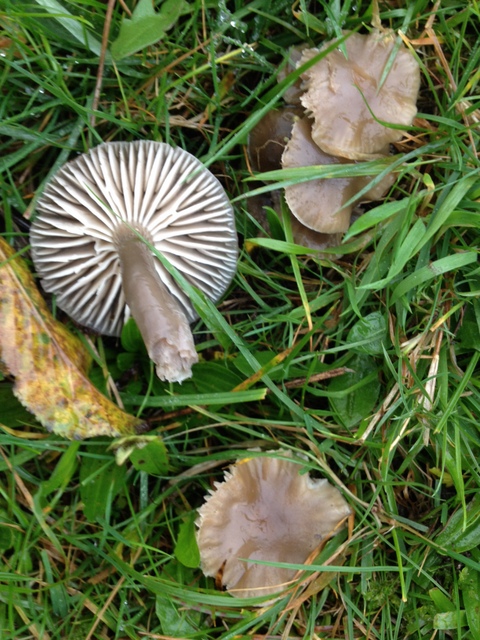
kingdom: Fungi
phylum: Basidiomycota
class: Agaricomycetes
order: Agaricales
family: Hygrophoraceae
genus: Gliophorus
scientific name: Gliophorus irrigatus
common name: slimet vokshat
